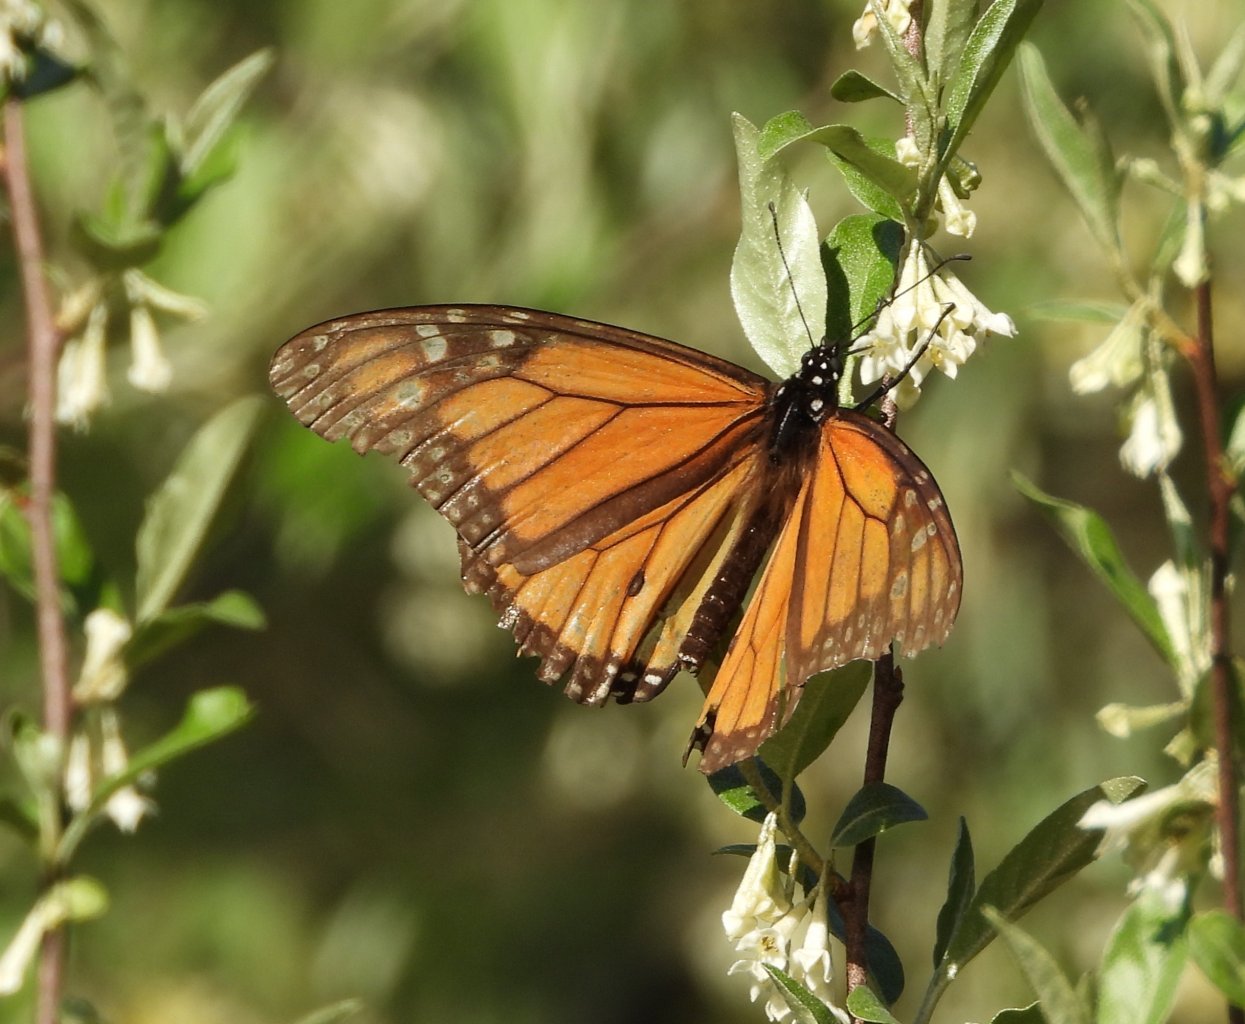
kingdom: Animalia
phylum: Arthropoda
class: Insecta
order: Lepidoptera
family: Nymphalidae
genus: Danaus
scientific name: Danaus plexippus
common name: Monarch
